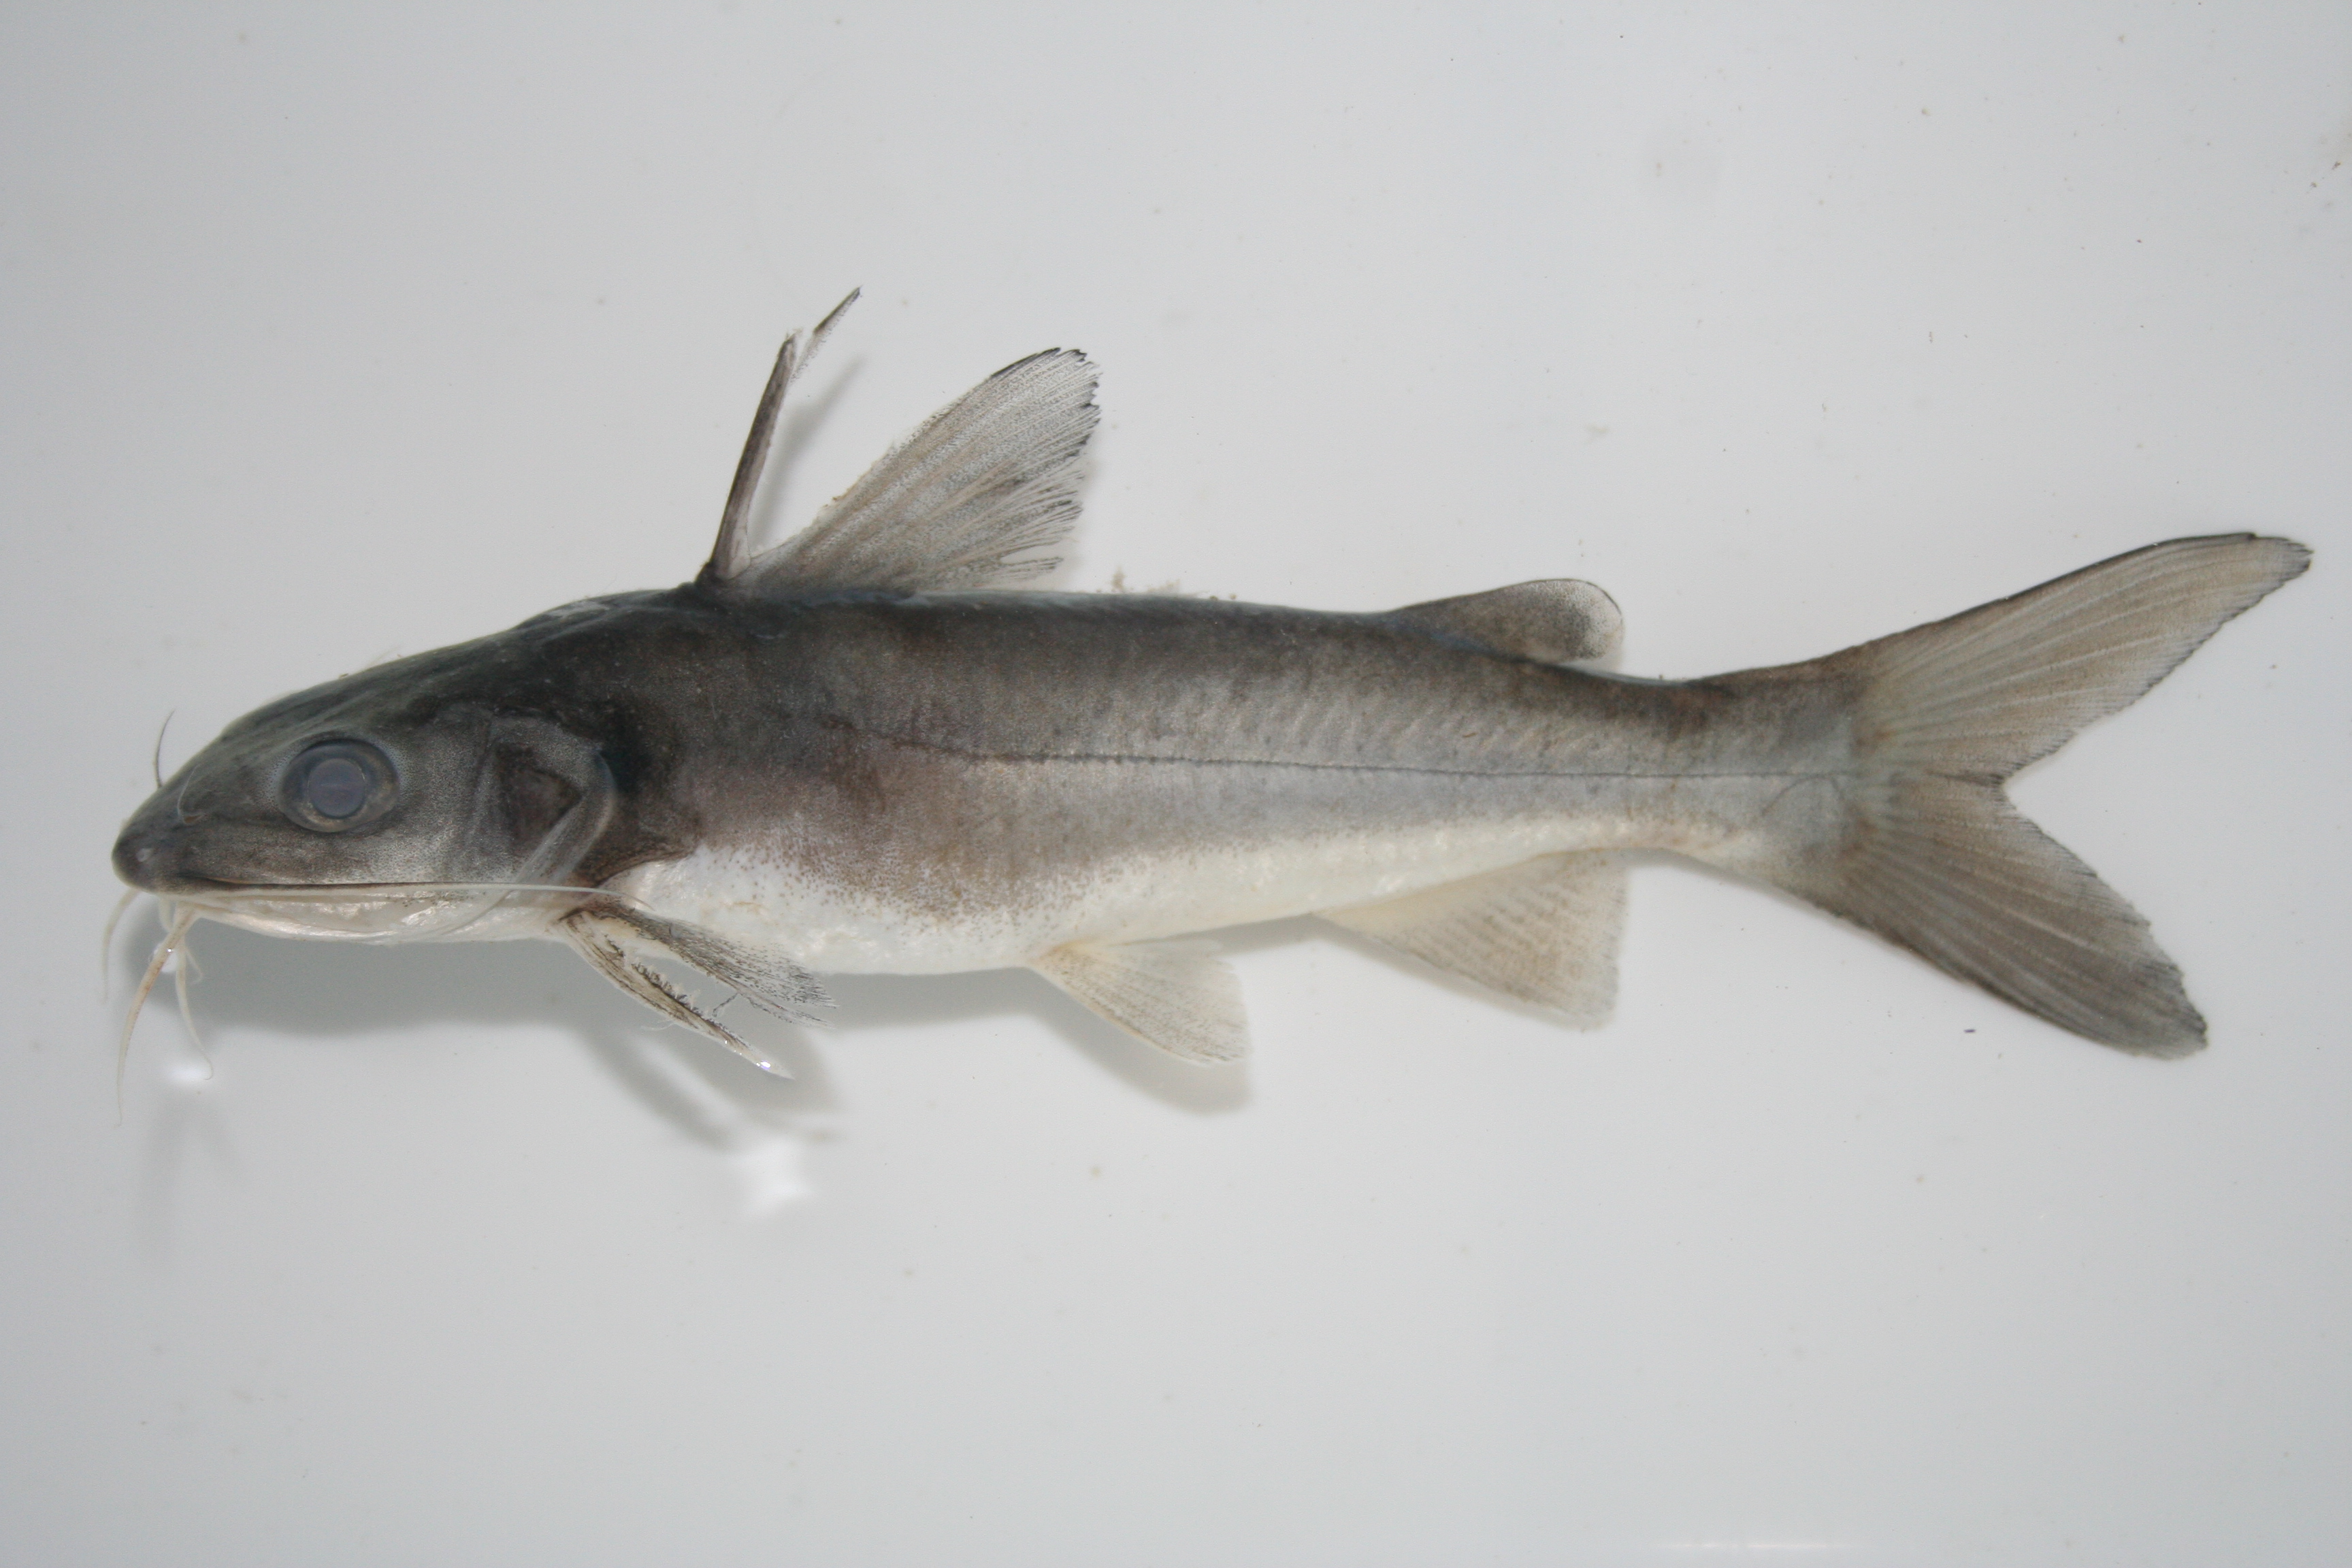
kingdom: Animalia
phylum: Chordata
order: Siluriformes
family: Claroteidae
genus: Chrysichthys
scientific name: Chrysichthys
